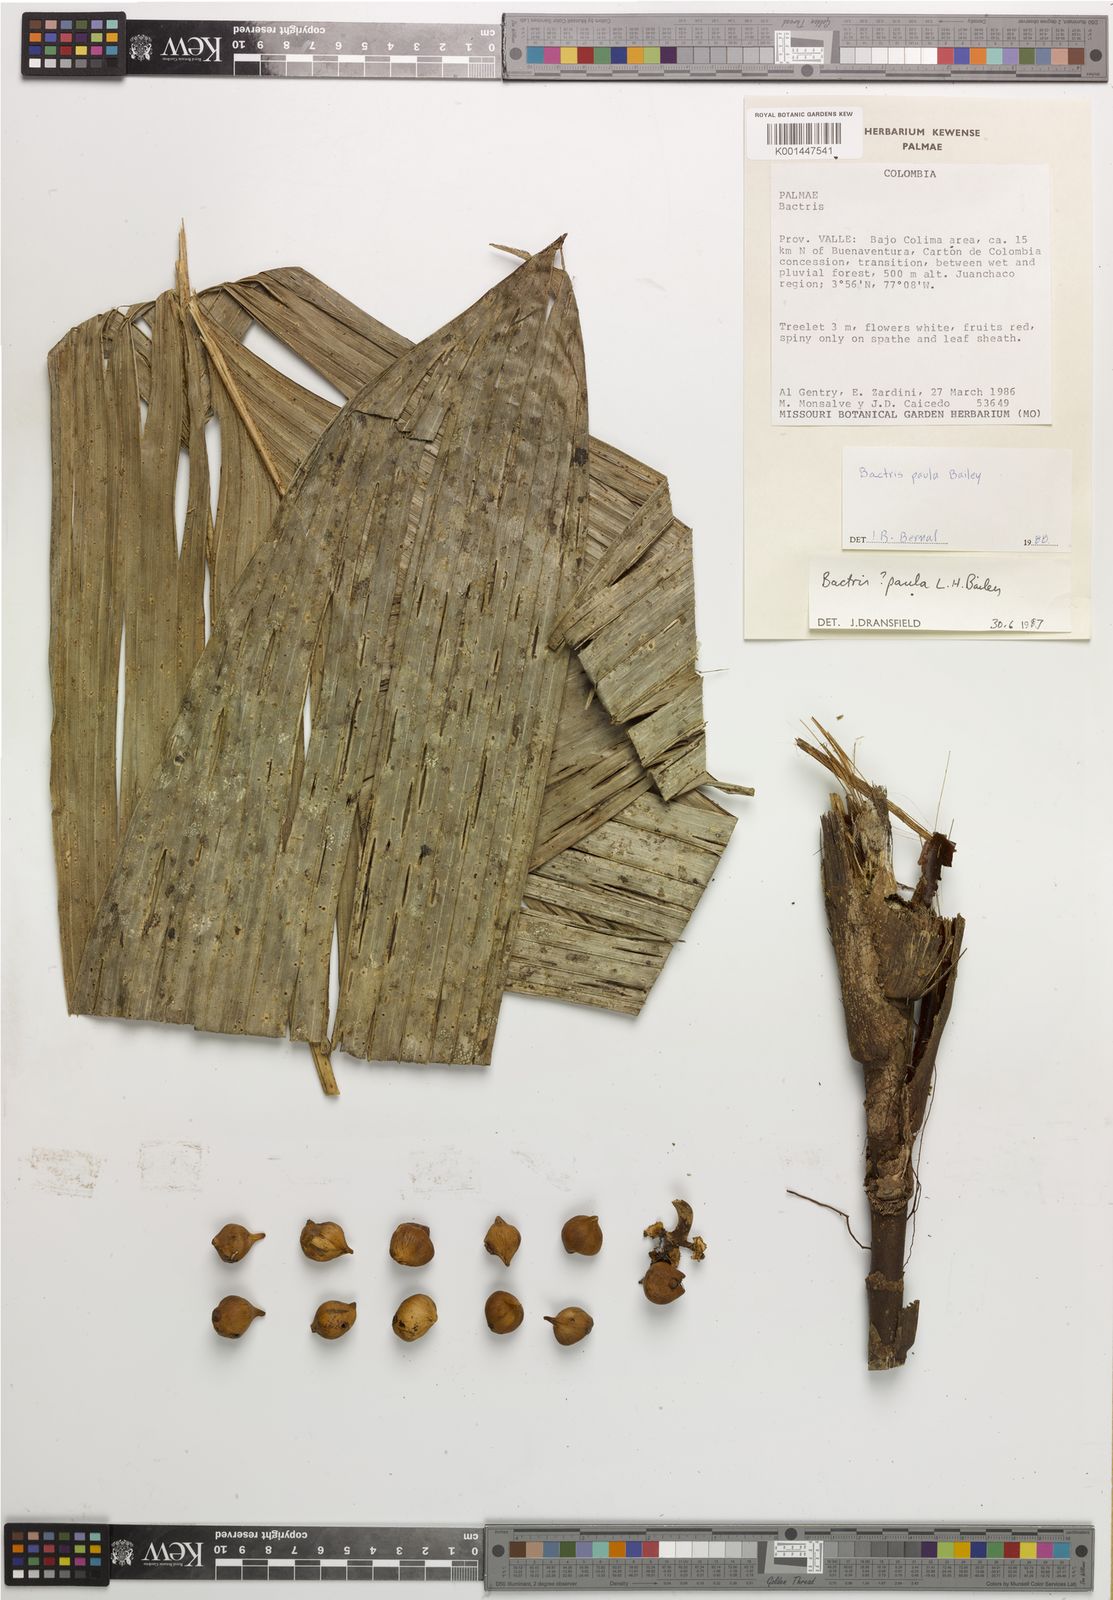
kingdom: Plantae
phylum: Tracheophyta
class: Liliopsida
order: Arecales
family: Arecaceae
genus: Bactris
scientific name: Bactris obovata
